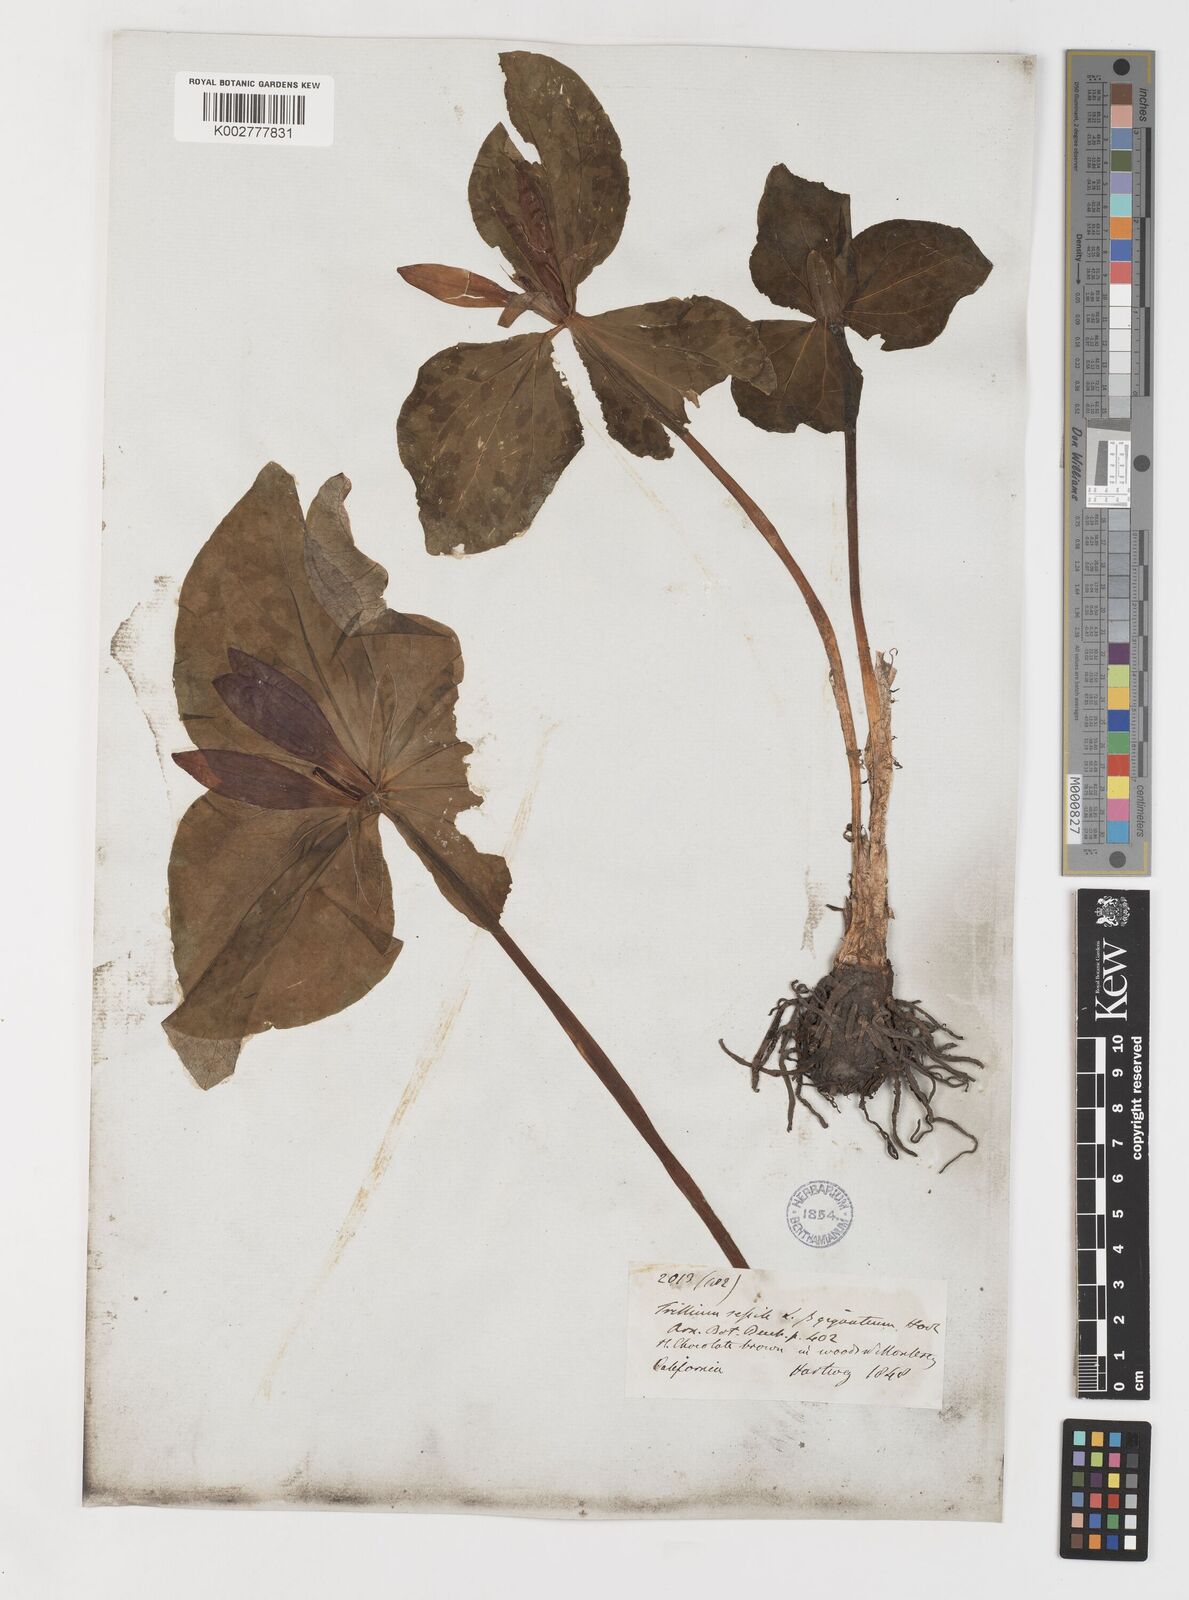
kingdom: Plantae
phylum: Tracheophyta
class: Liliopsida
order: Liliales
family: Melanthiaceae
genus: Trillium
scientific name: Trillium chloropetalum
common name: Giant trillium
